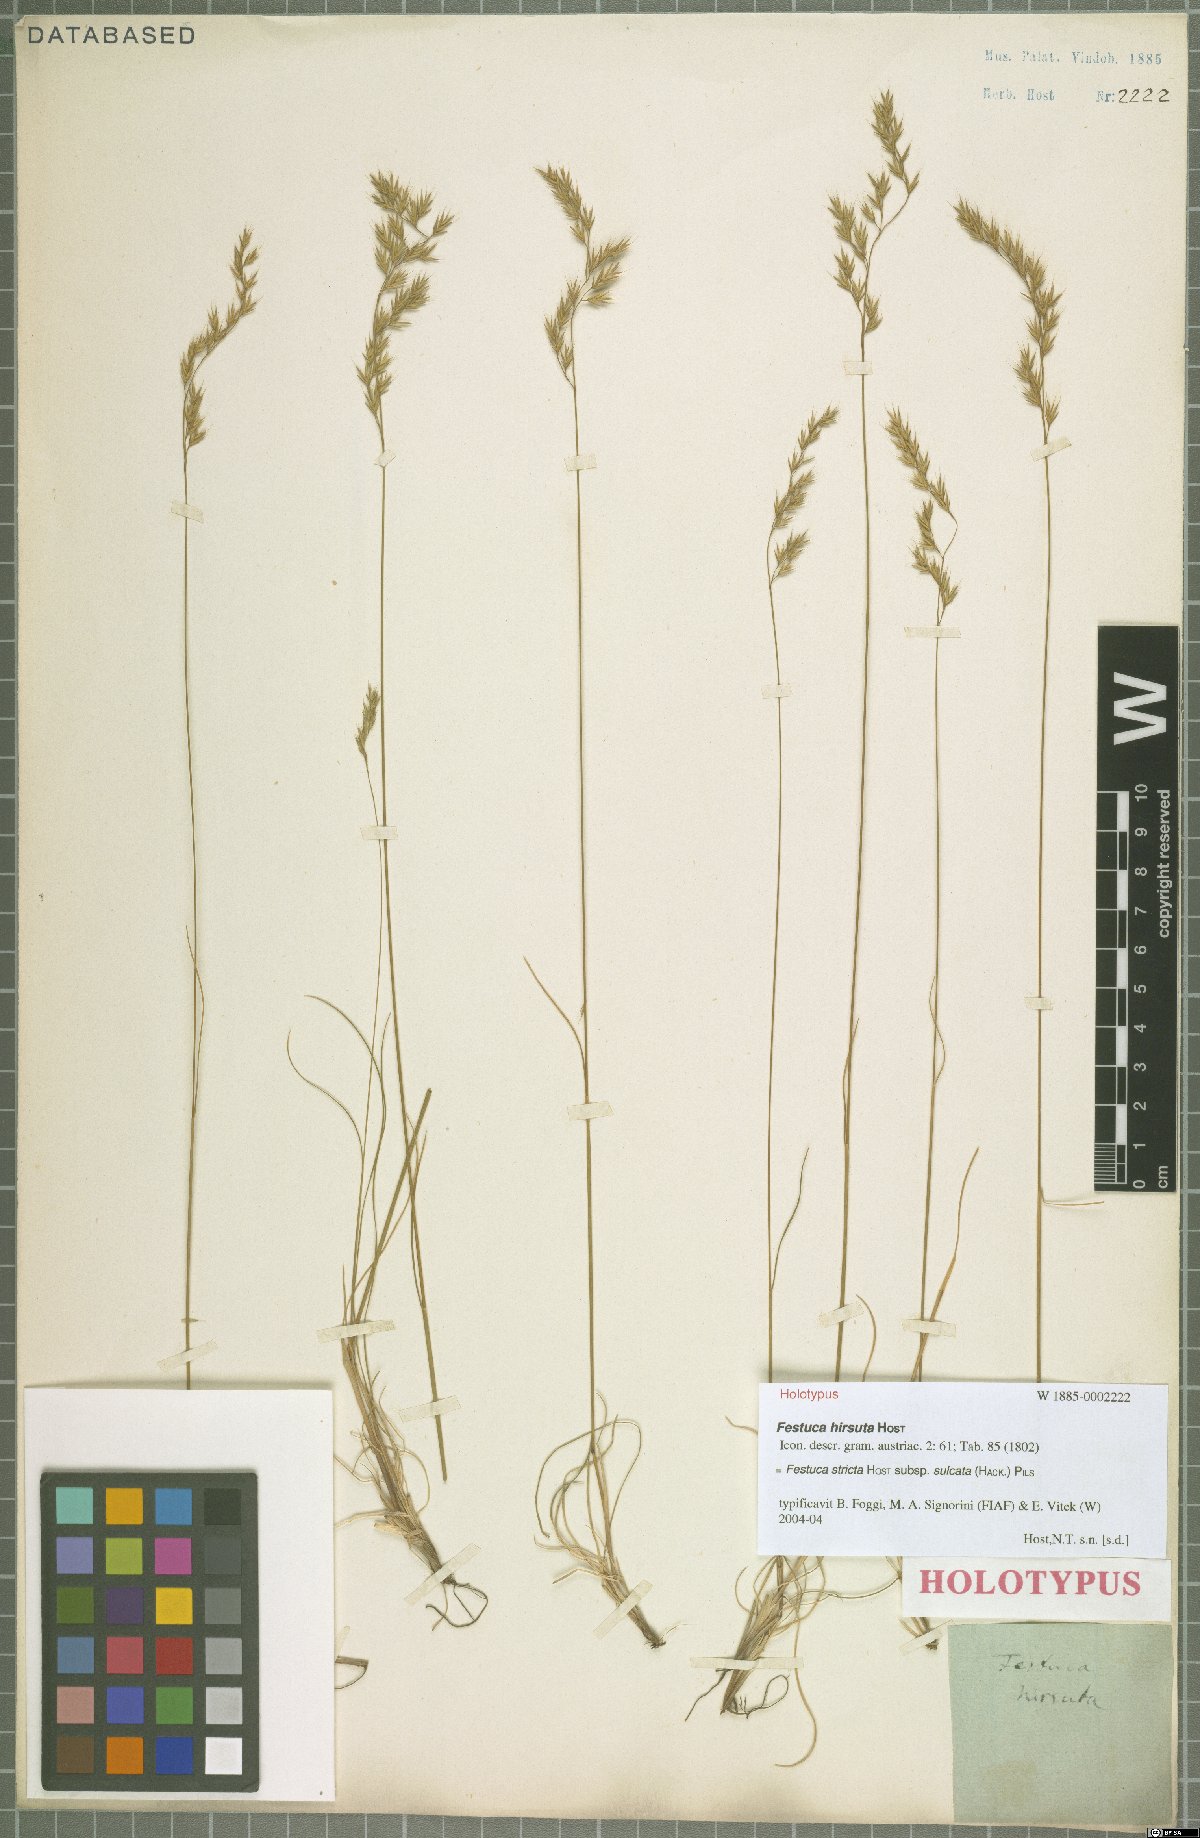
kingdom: Plantae
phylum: Tracheophyta
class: Liliopsida
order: Poales
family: Poaceae
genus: Festuca
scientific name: Festuca rupicola
